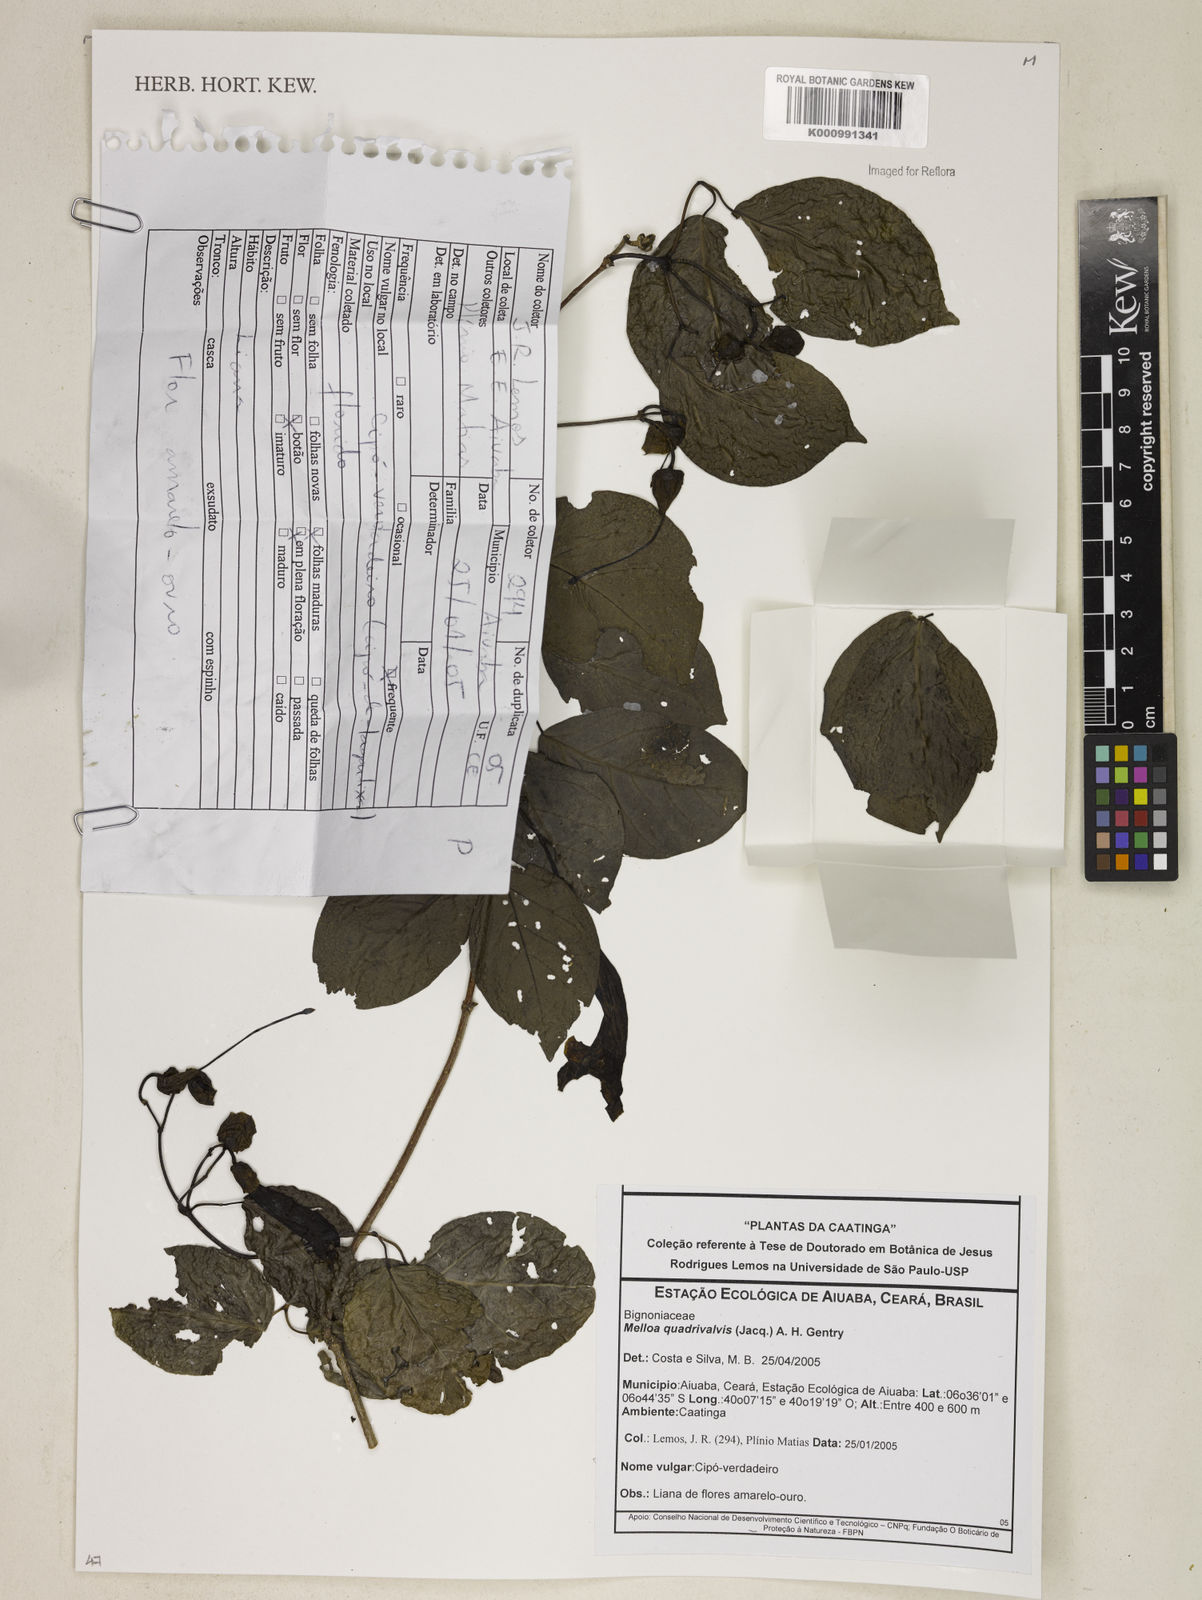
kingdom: Plantae
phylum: Tracheophyta
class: Magnoliopsida
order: Lamiales
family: Bignoniaceae
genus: Dolichandra
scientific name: Dolichandra quadrivalvis
